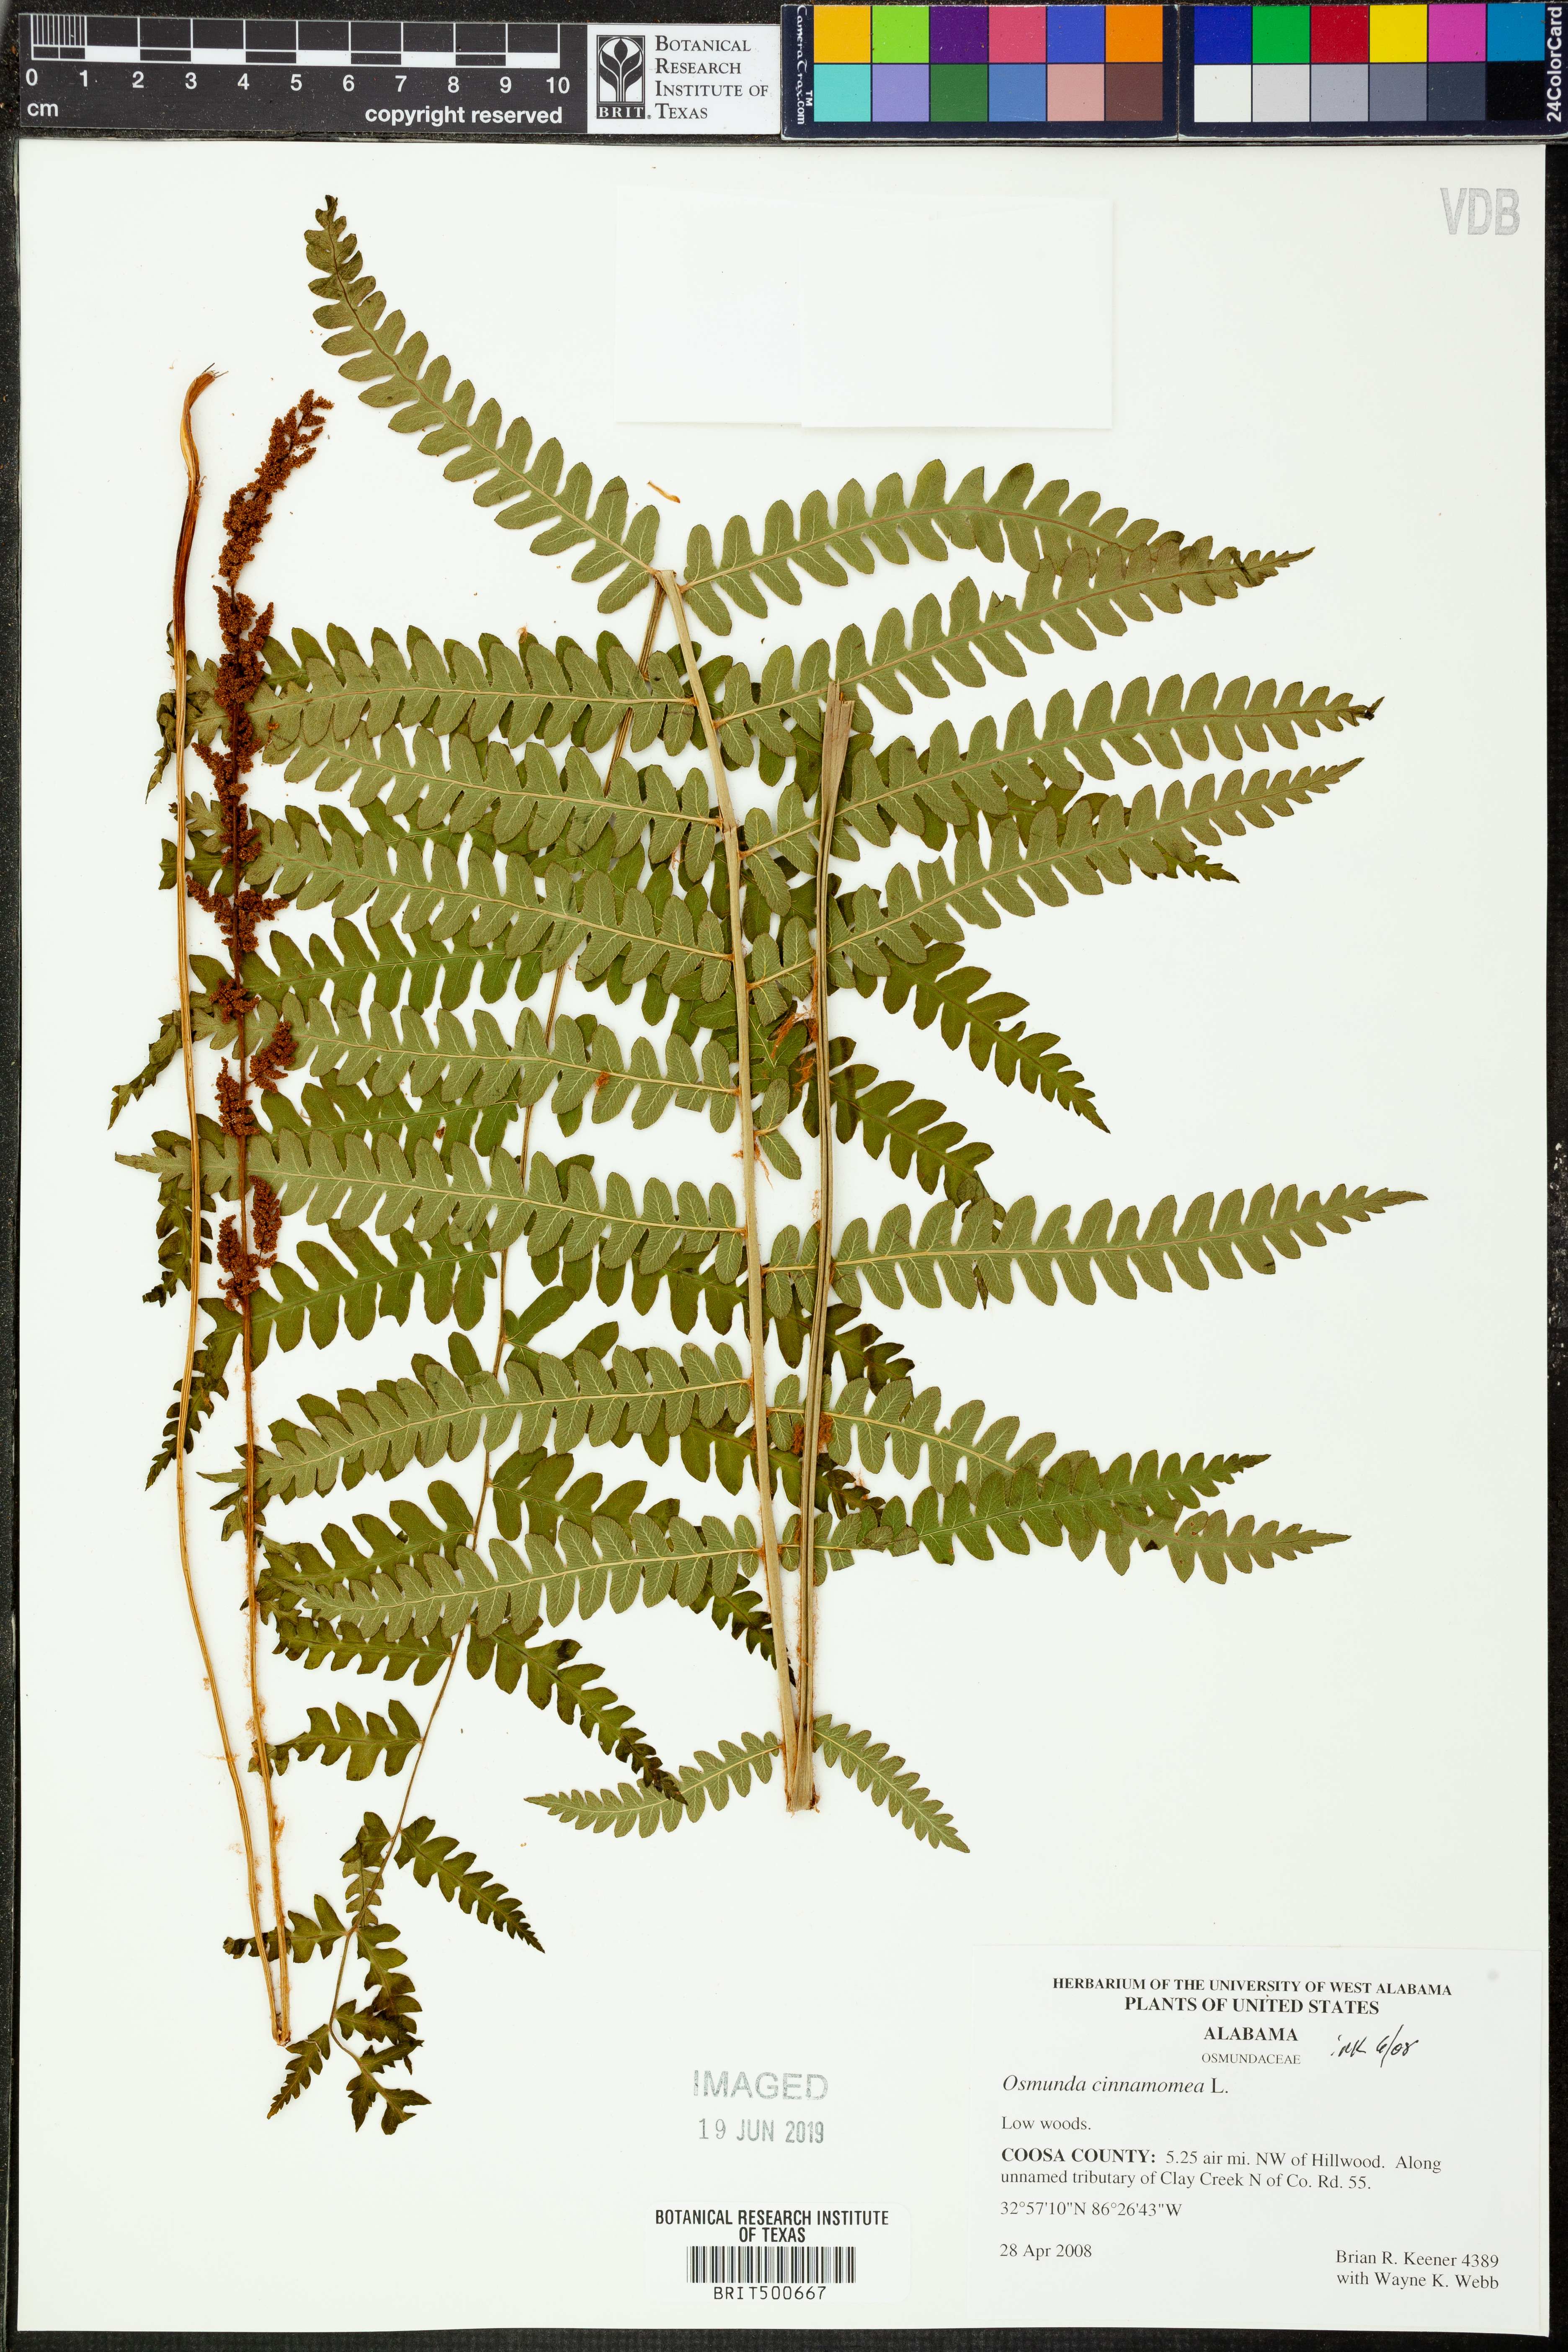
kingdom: Plantae
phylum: Tracheophyta
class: Polypodiopsida
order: Osmundales
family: Osmundaceae
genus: Osmundastrum
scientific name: Osmundastrum cinnamomeum
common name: Cinnamon fern
